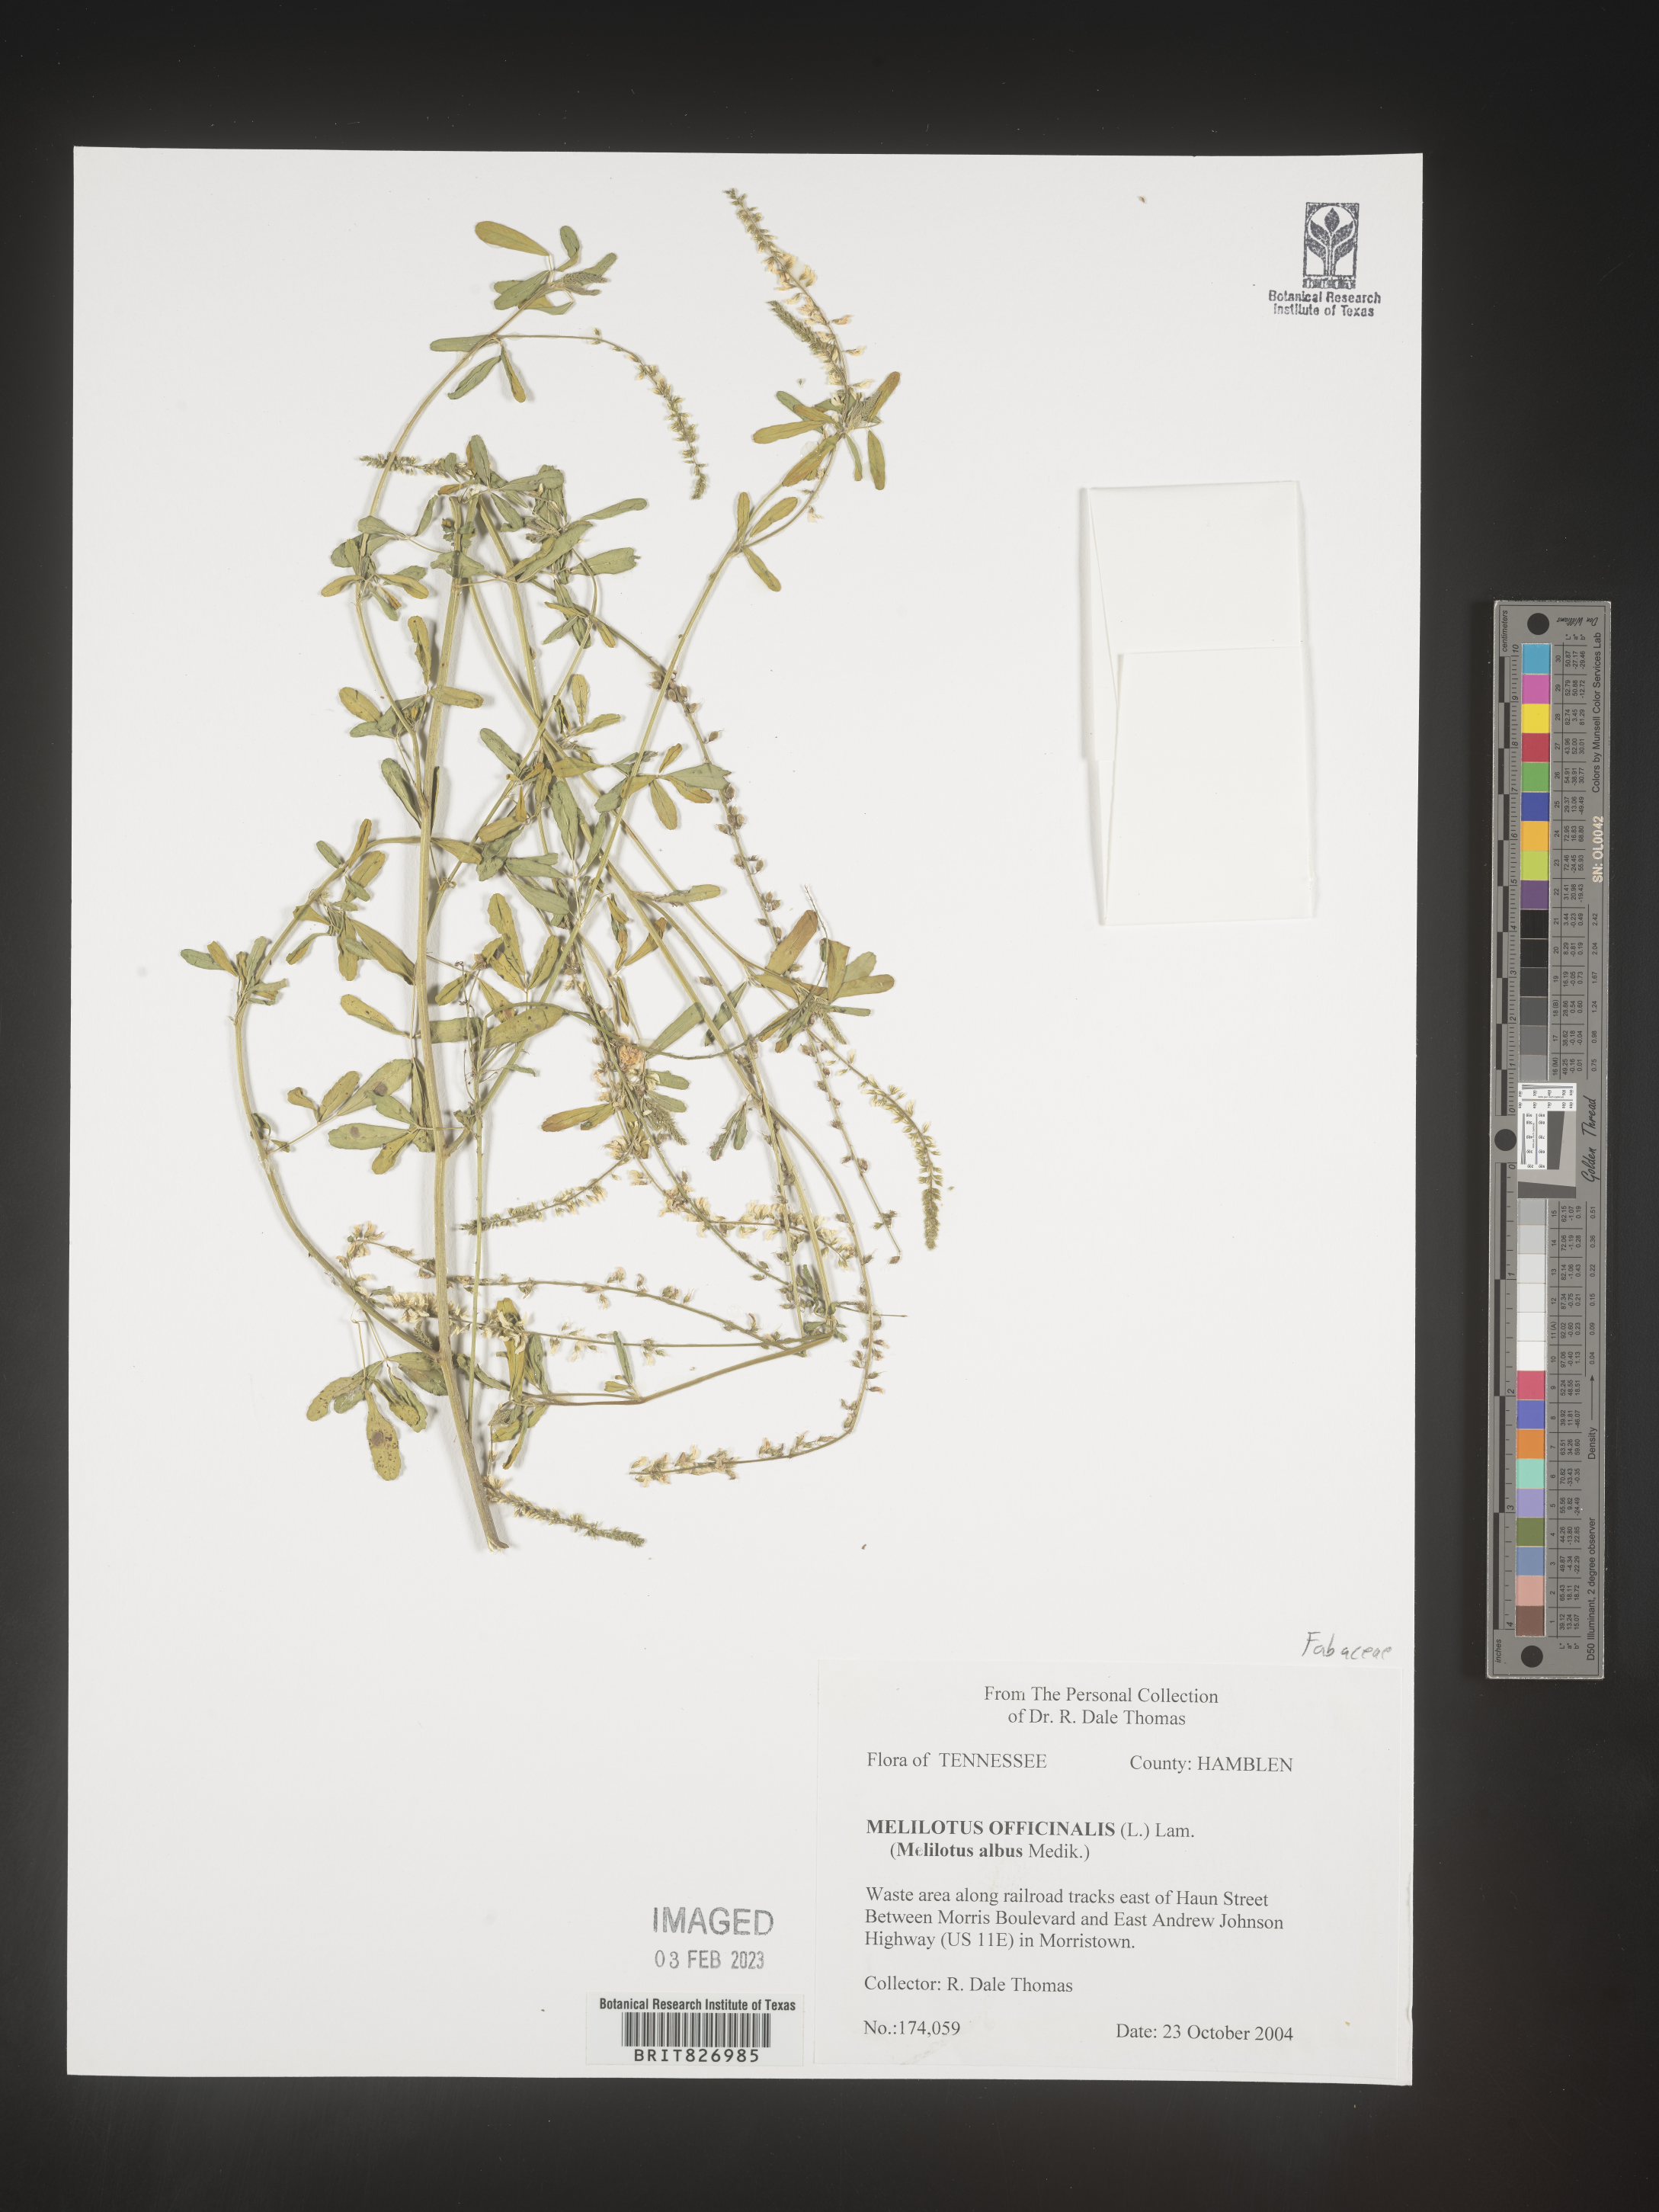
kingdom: Plantae
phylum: Tracheophyta
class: Magnoliopsida
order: Fabales
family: Fabaceae
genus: Melilotus
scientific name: Melilotus officinalis
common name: Sweetclover
